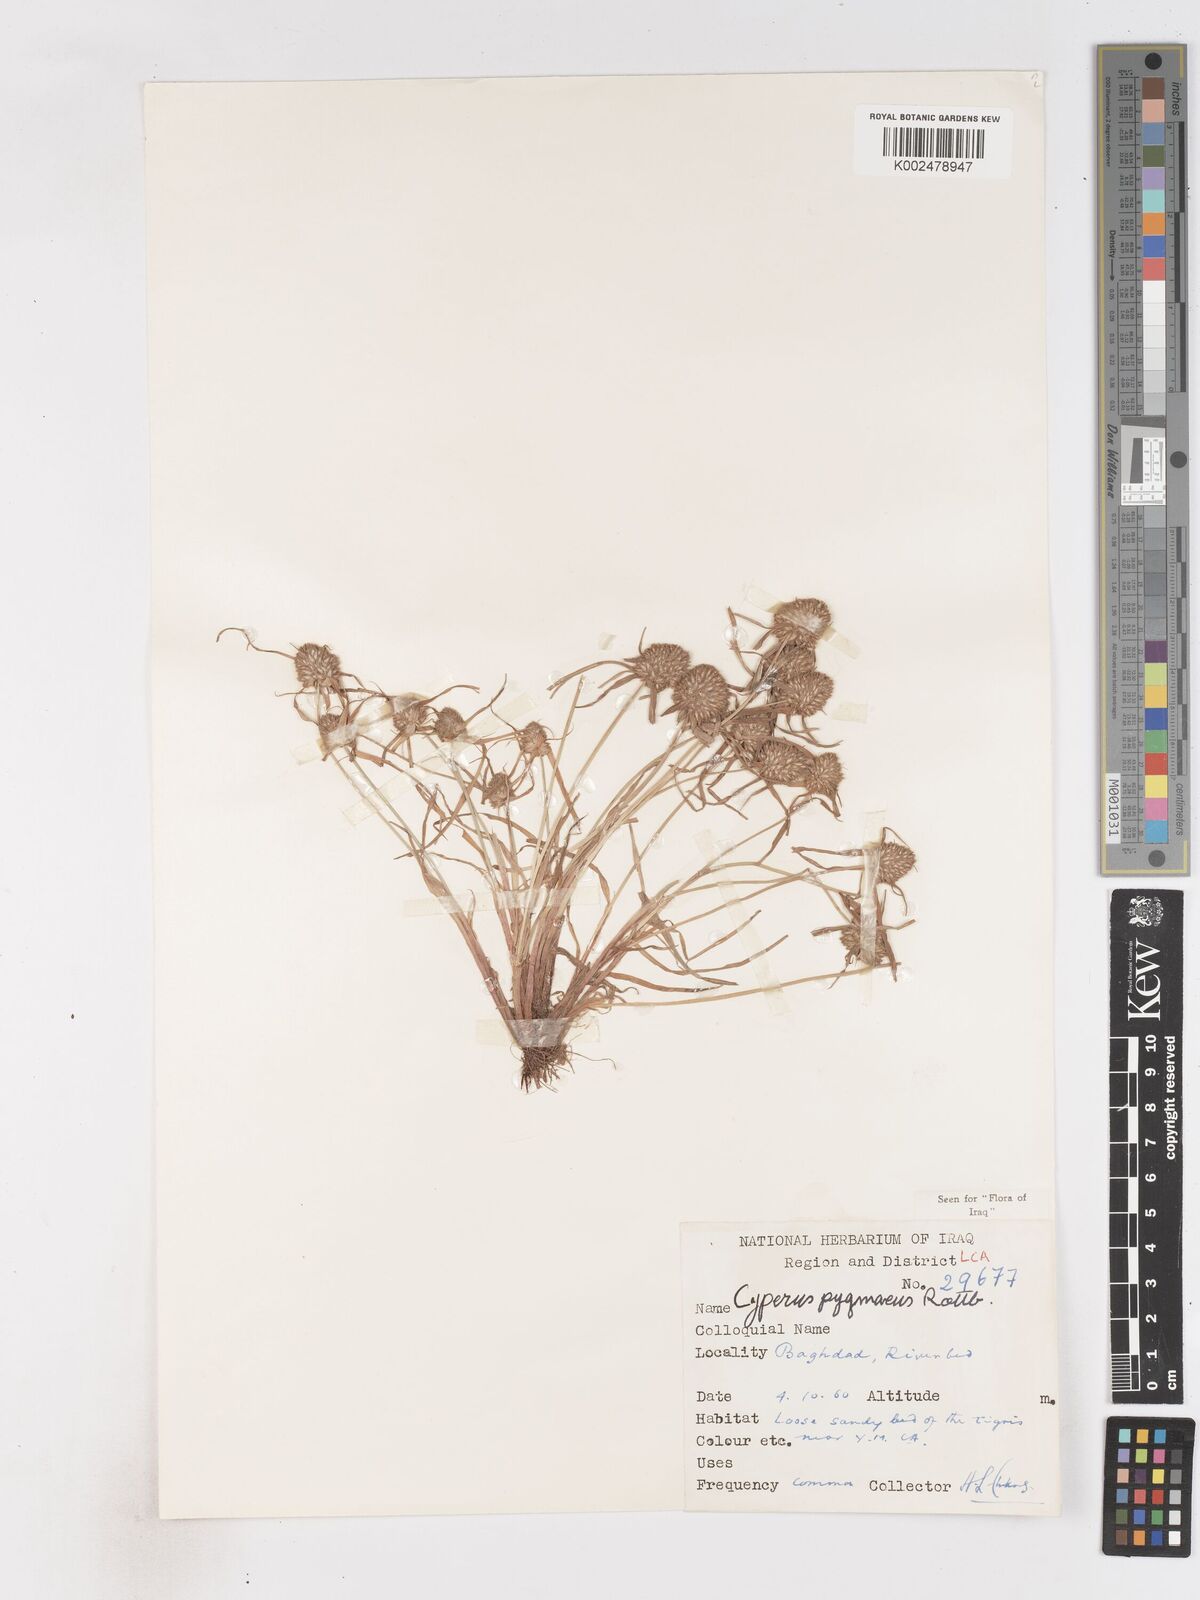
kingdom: Plantae
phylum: Tracheophyta
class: Liliopsida
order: Poales
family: Cyperaceae
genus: Cyperus
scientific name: Cyperus michelianus
